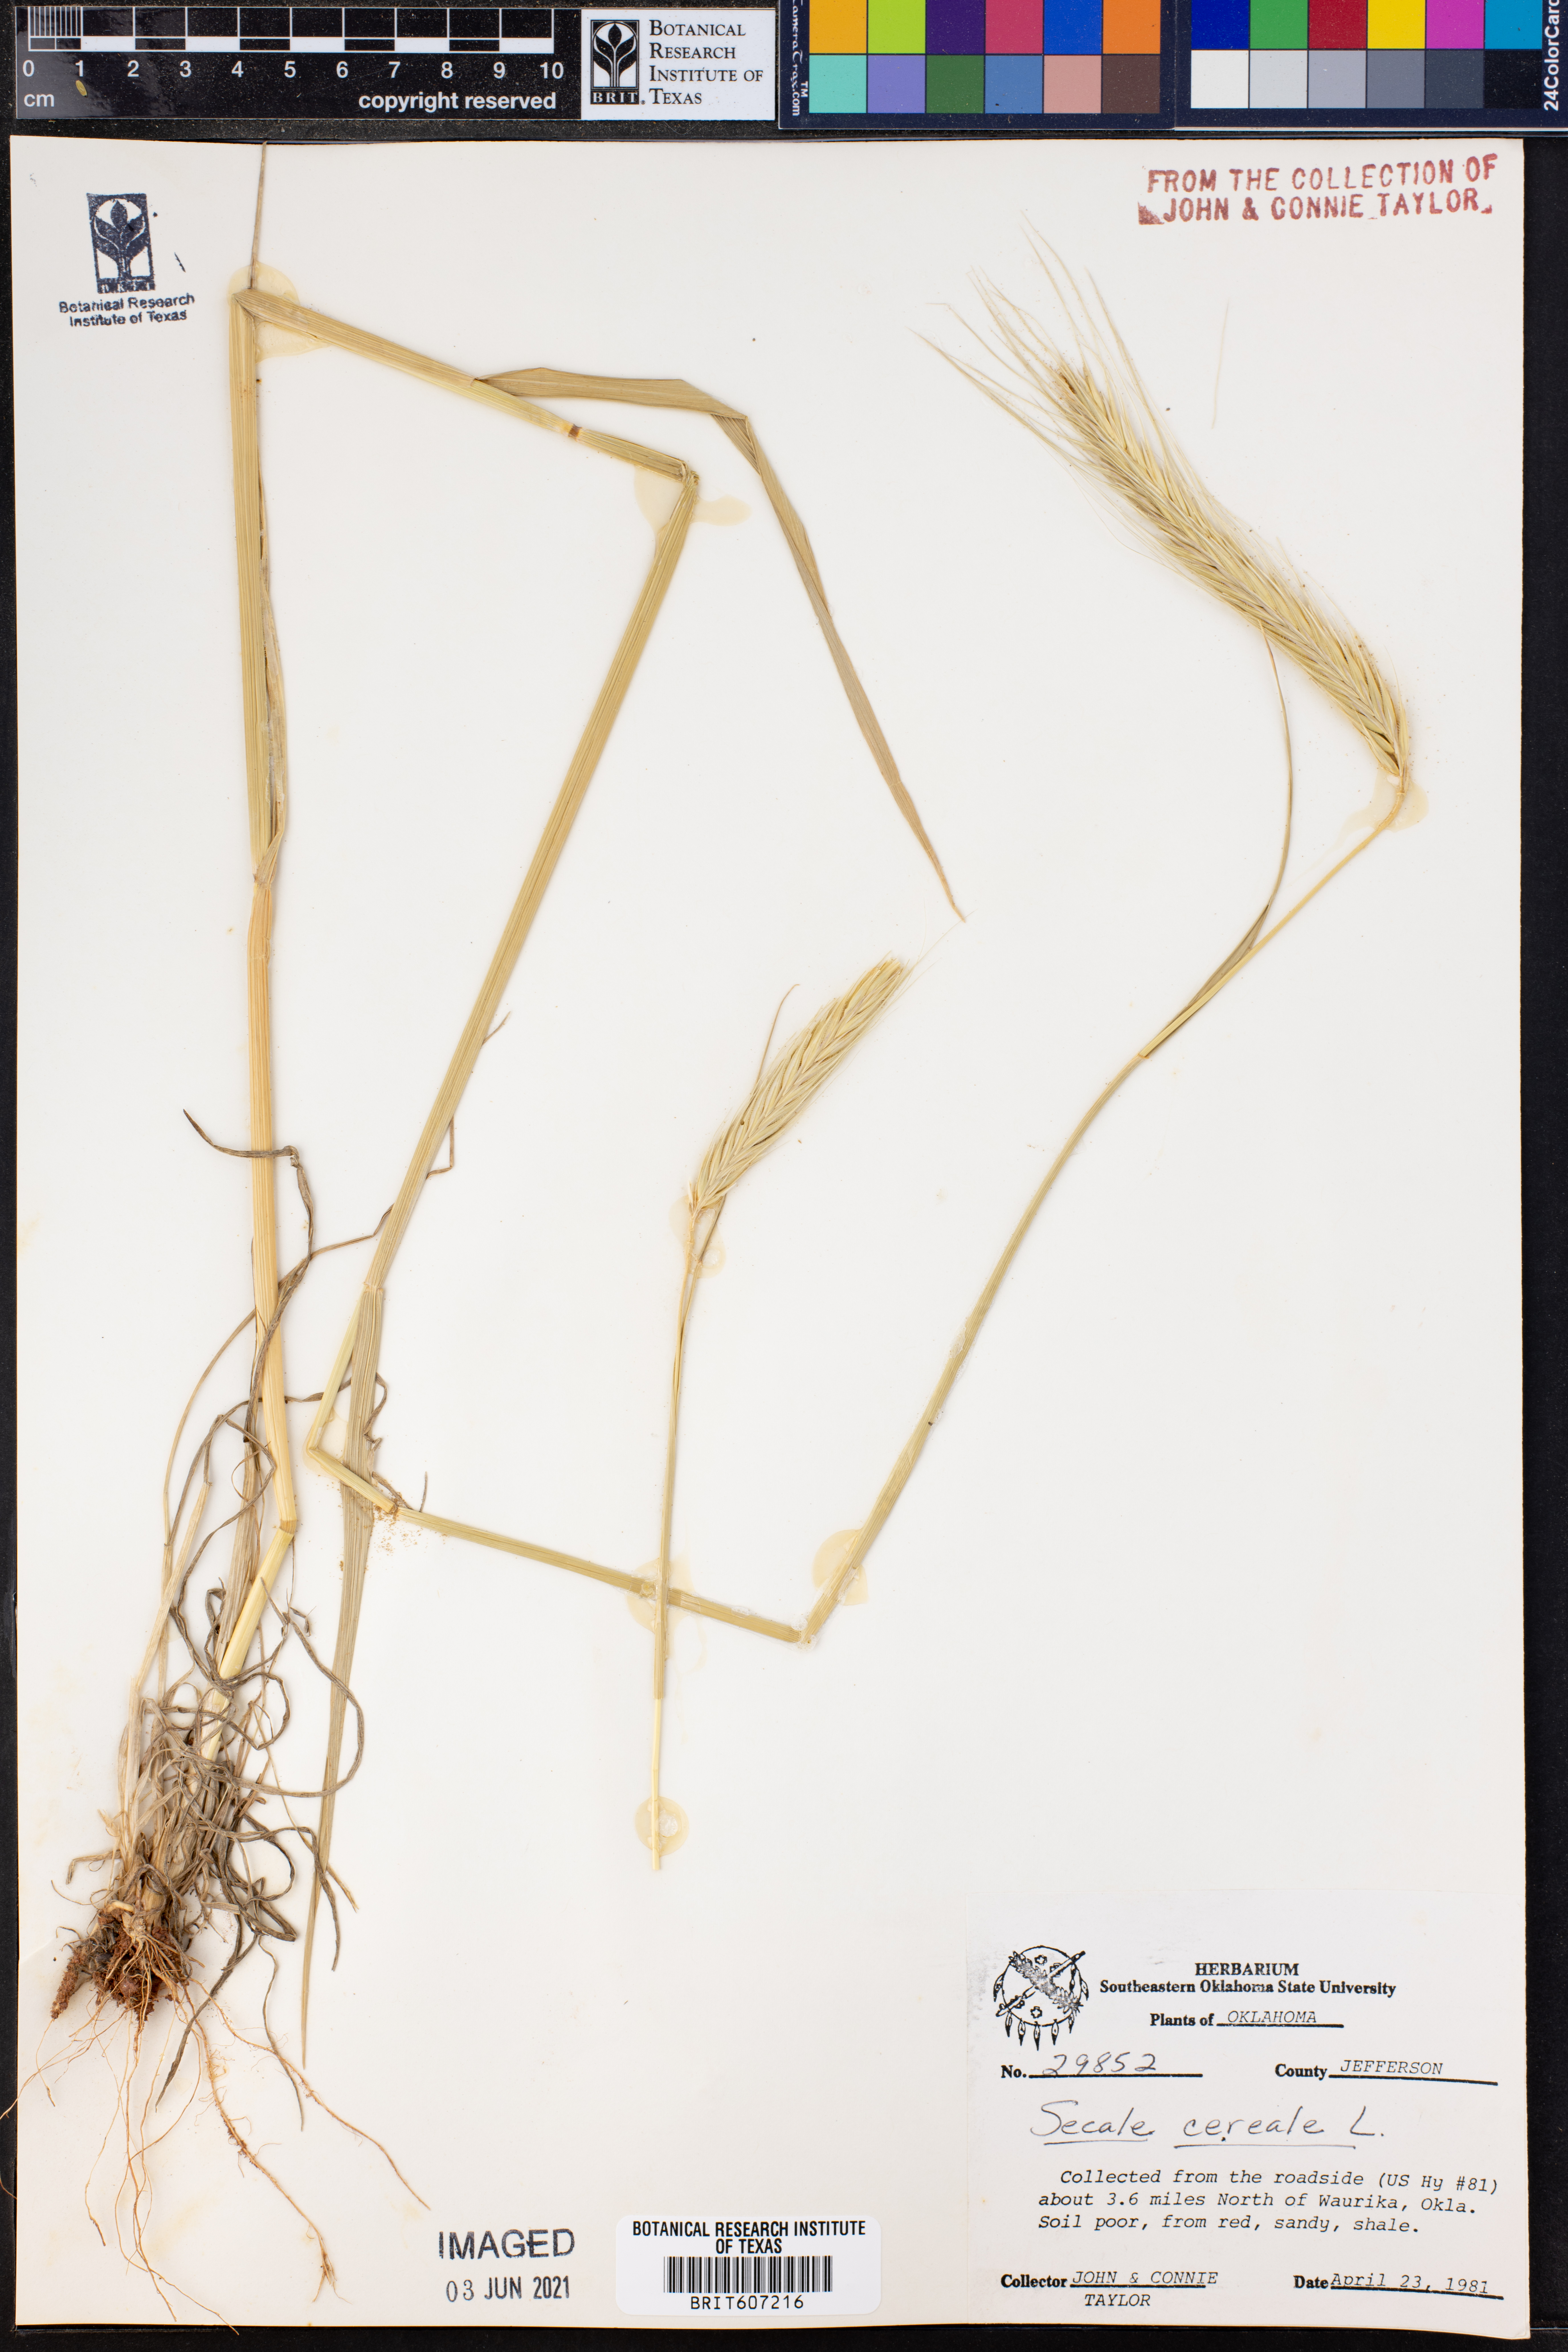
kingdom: Plantae
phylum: Tracheophyta
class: Liliopsida
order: Poales
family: Poaceae
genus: Secale
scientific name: Secale cereale
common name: Rye
